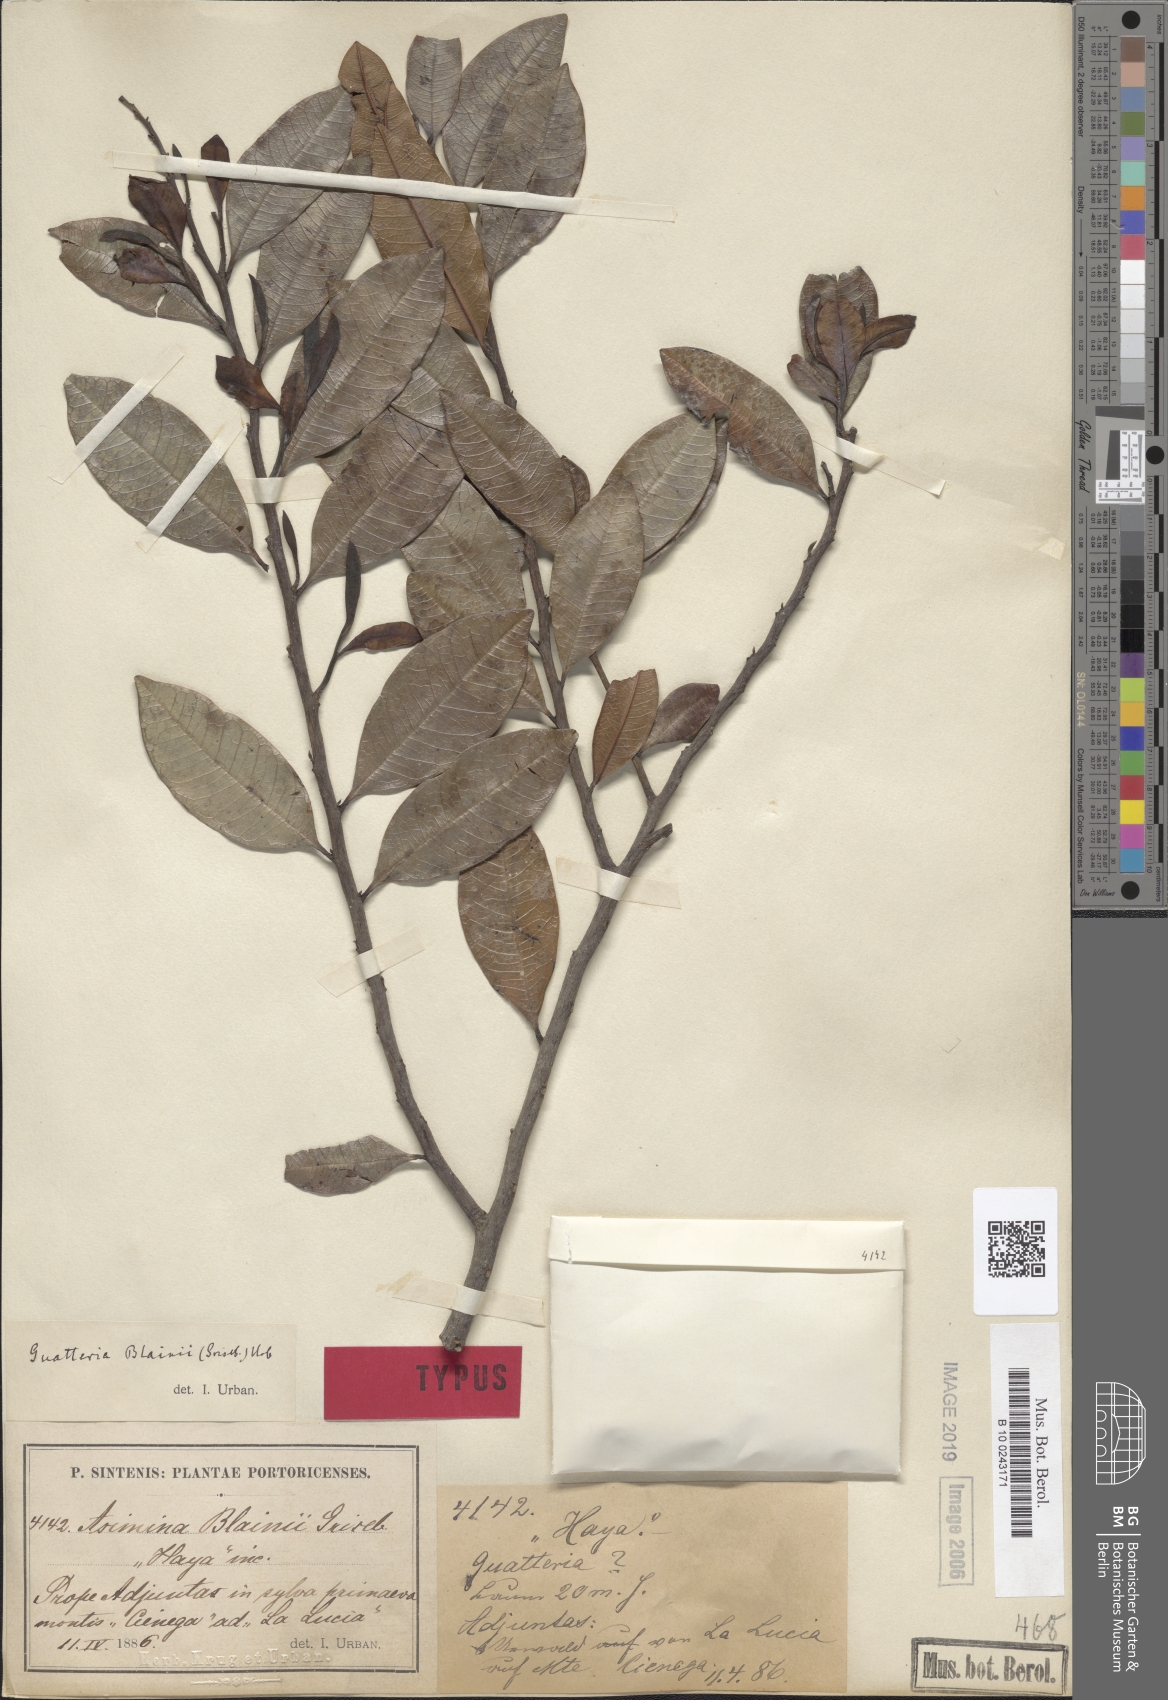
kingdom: Plantae
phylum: Tracheophyta
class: Magnoliopsida
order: Magnoliales
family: Annonaceae
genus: Guatteria
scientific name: Guatteria blainii
